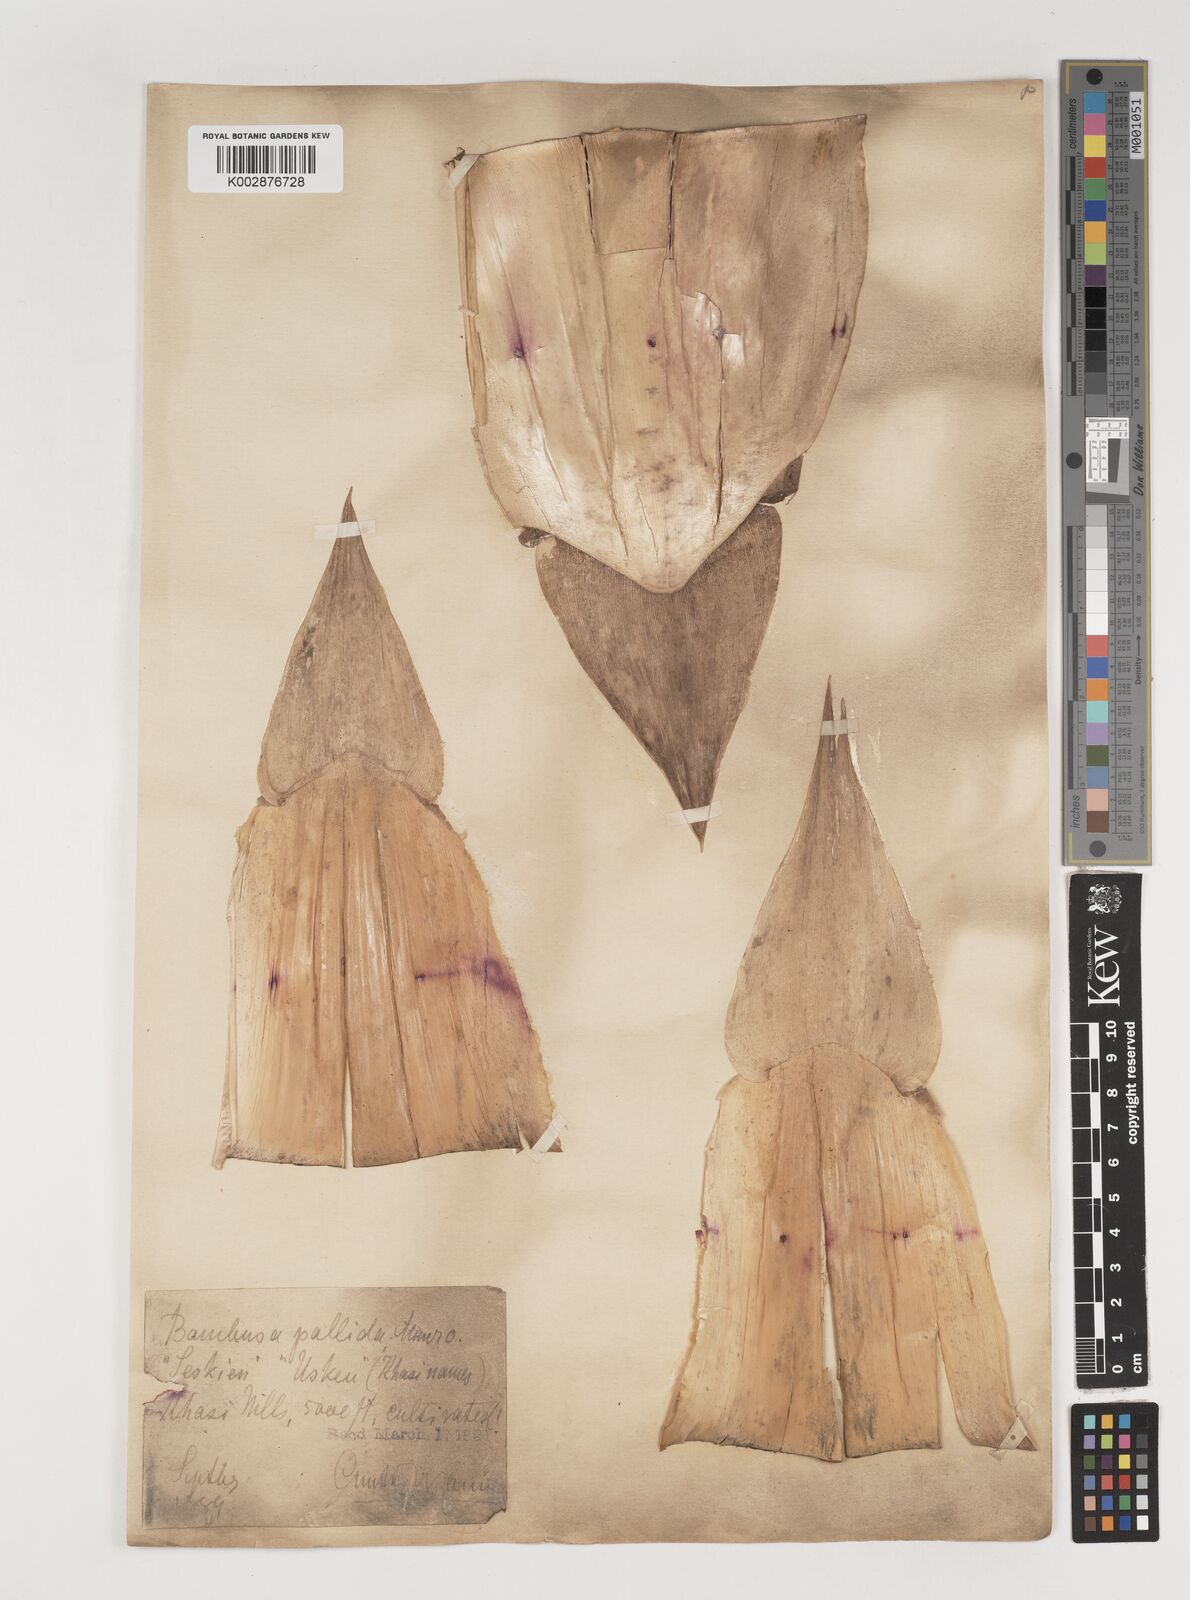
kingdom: Plantae
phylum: Tracheophyta
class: Liliopsida
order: Poales
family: Poaceae
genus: Bambusa
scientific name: Bambusa pallida
